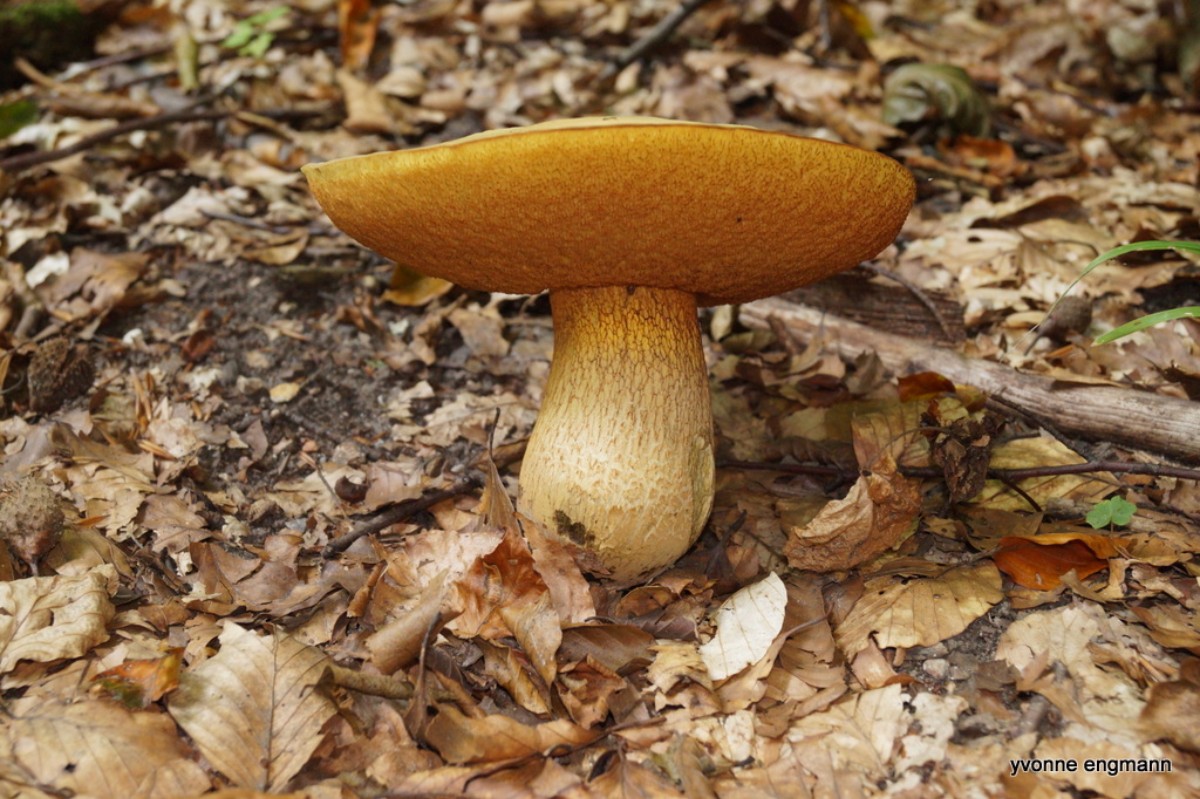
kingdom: Fungi
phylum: Basidiomycota
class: Agaricomycetes
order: Boletales
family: Boletaceae
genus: Suillellus
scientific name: Suillellus luridus
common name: netstokket indigorørhat
